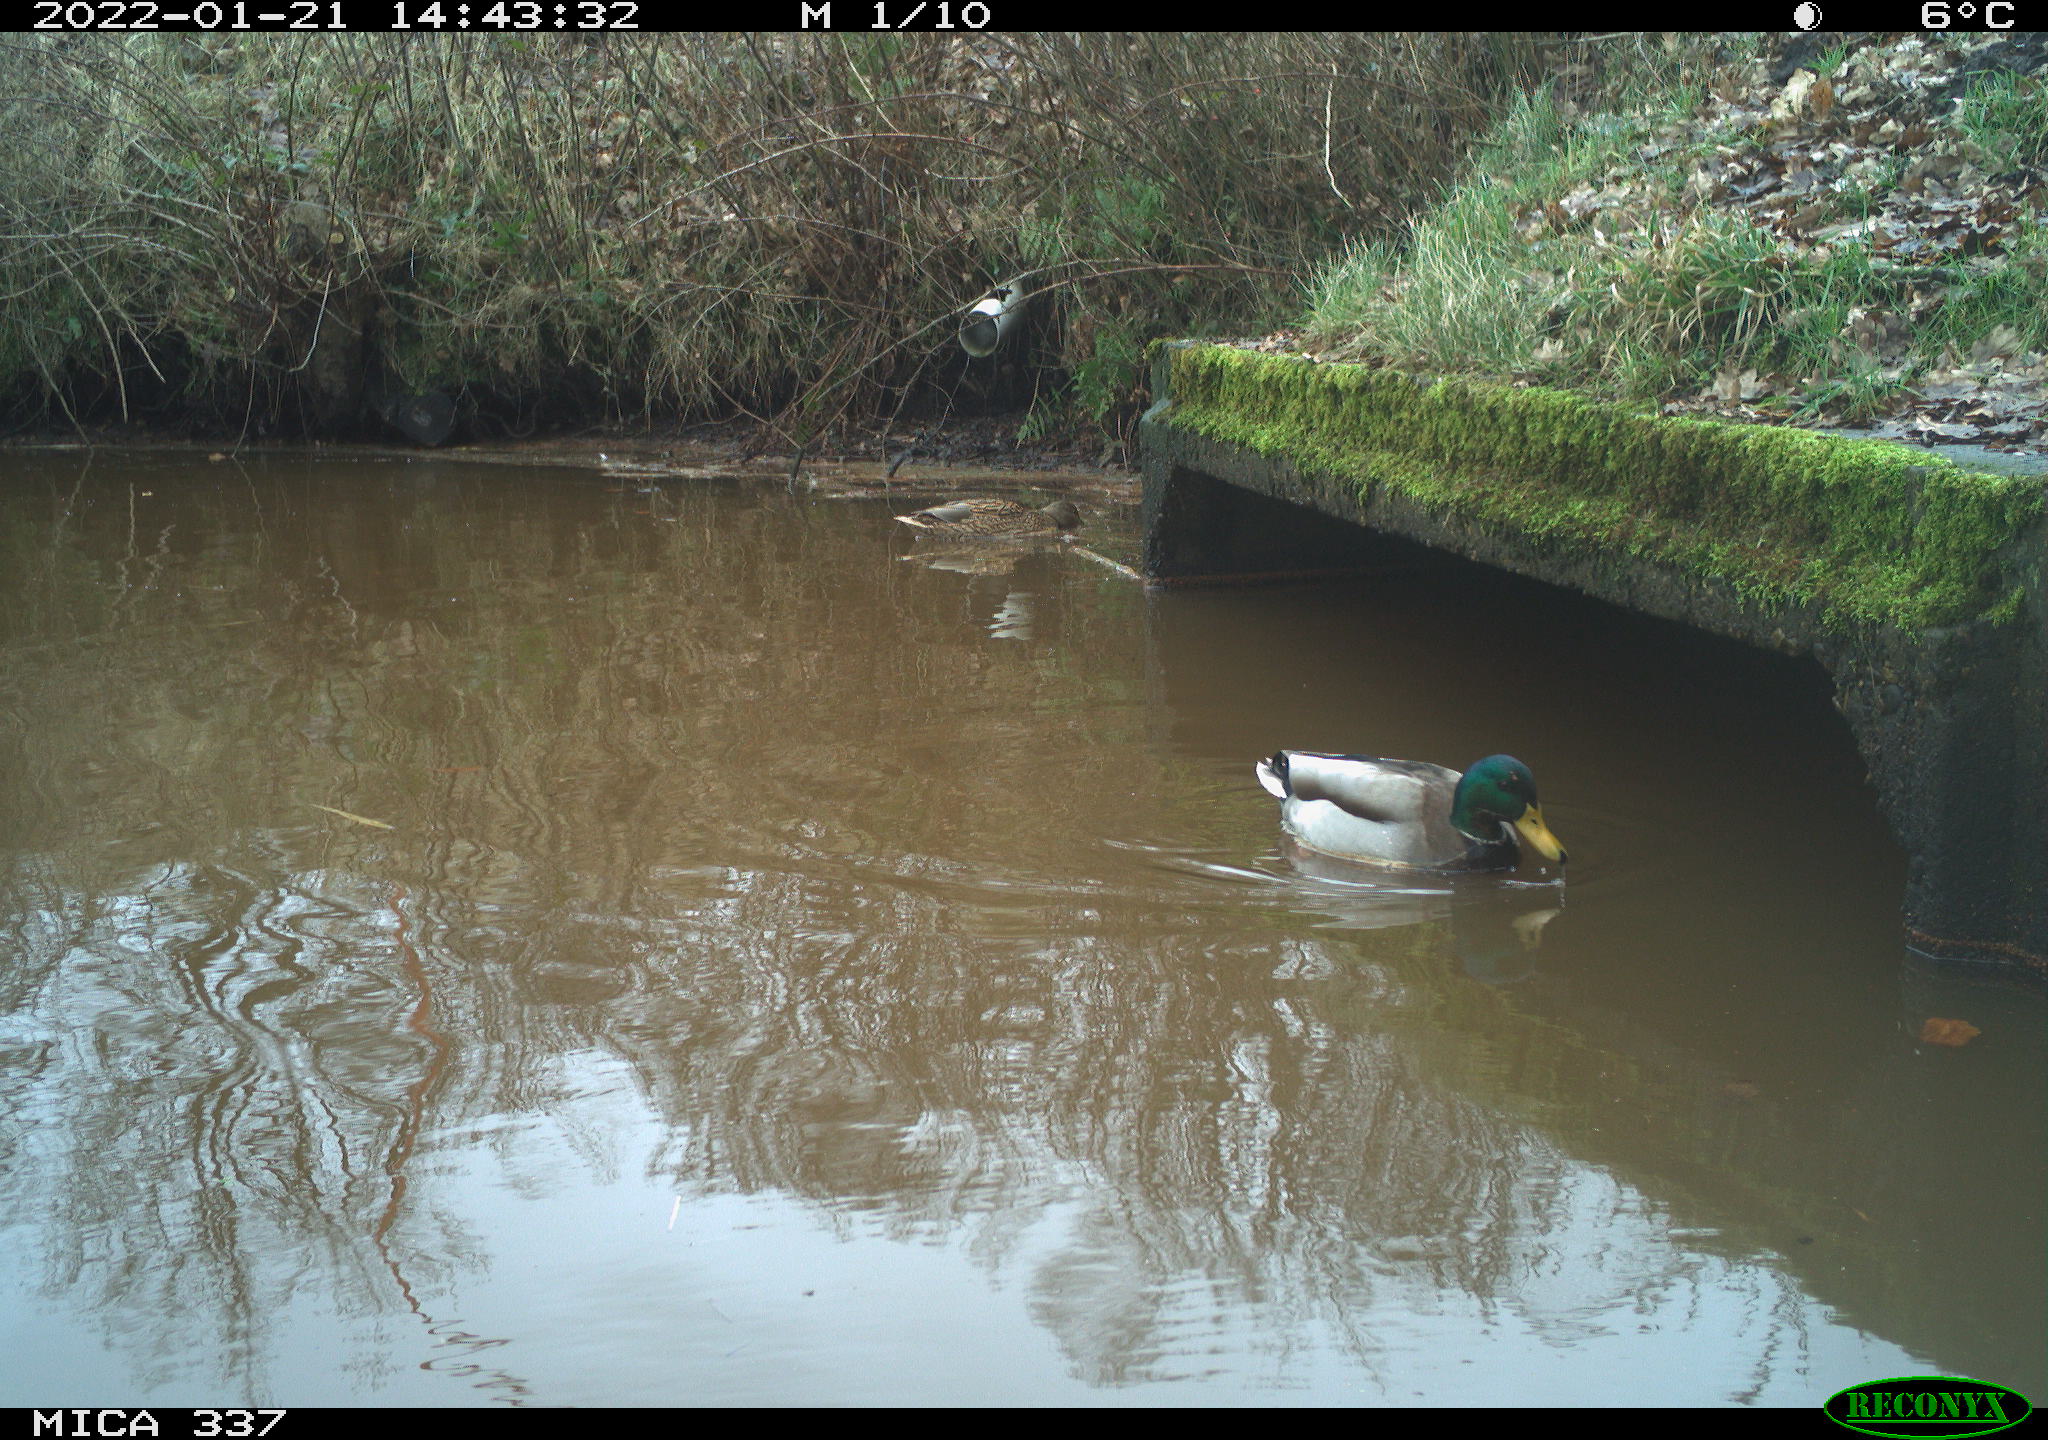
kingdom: Animalia
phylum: Chordata
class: Aves
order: Anseriformes
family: Anatidae
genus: Anas
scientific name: Anas platyrhynchos
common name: Mallard
